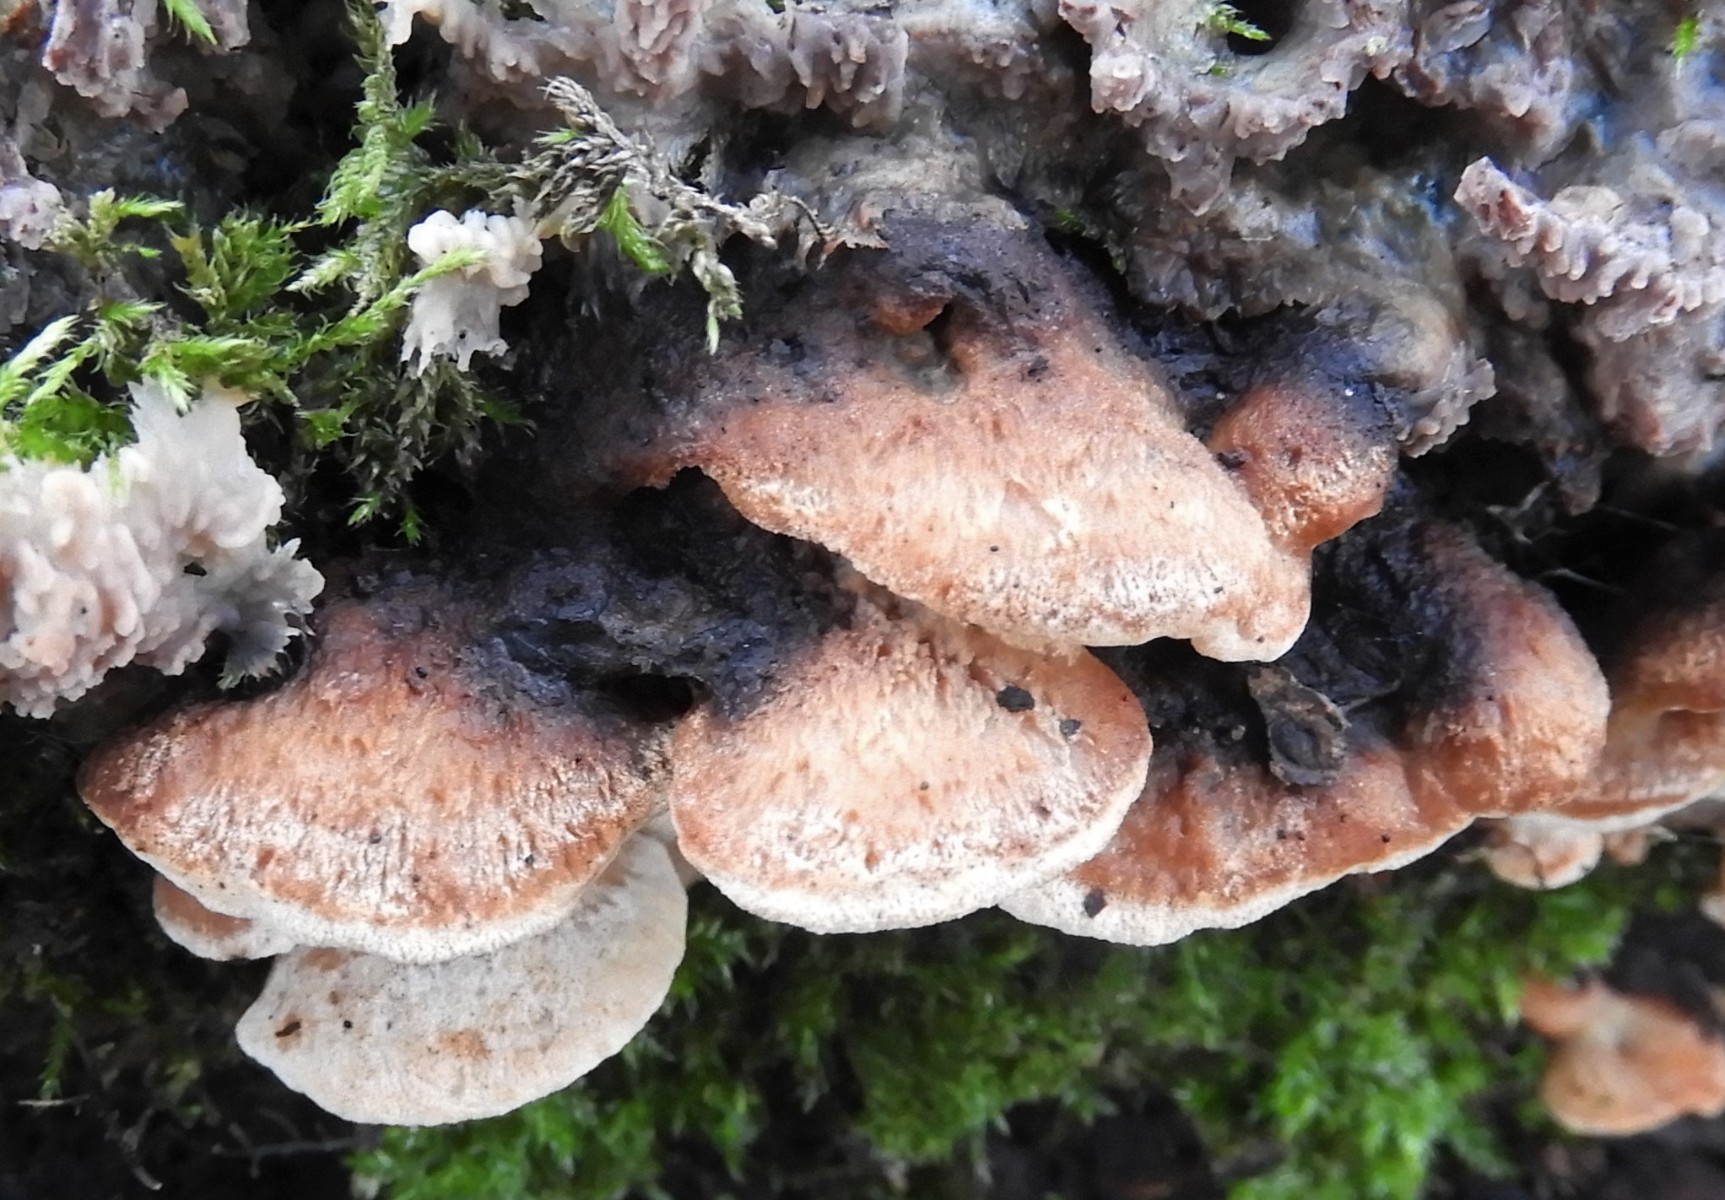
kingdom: Fungi
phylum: Basidiomycota
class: Agaricomycetes
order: Polyporales
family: Incrustoporiaceae
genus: Skeletocutis
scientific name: Skeletocutis nemoralis
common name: stor krystalporesvamp
